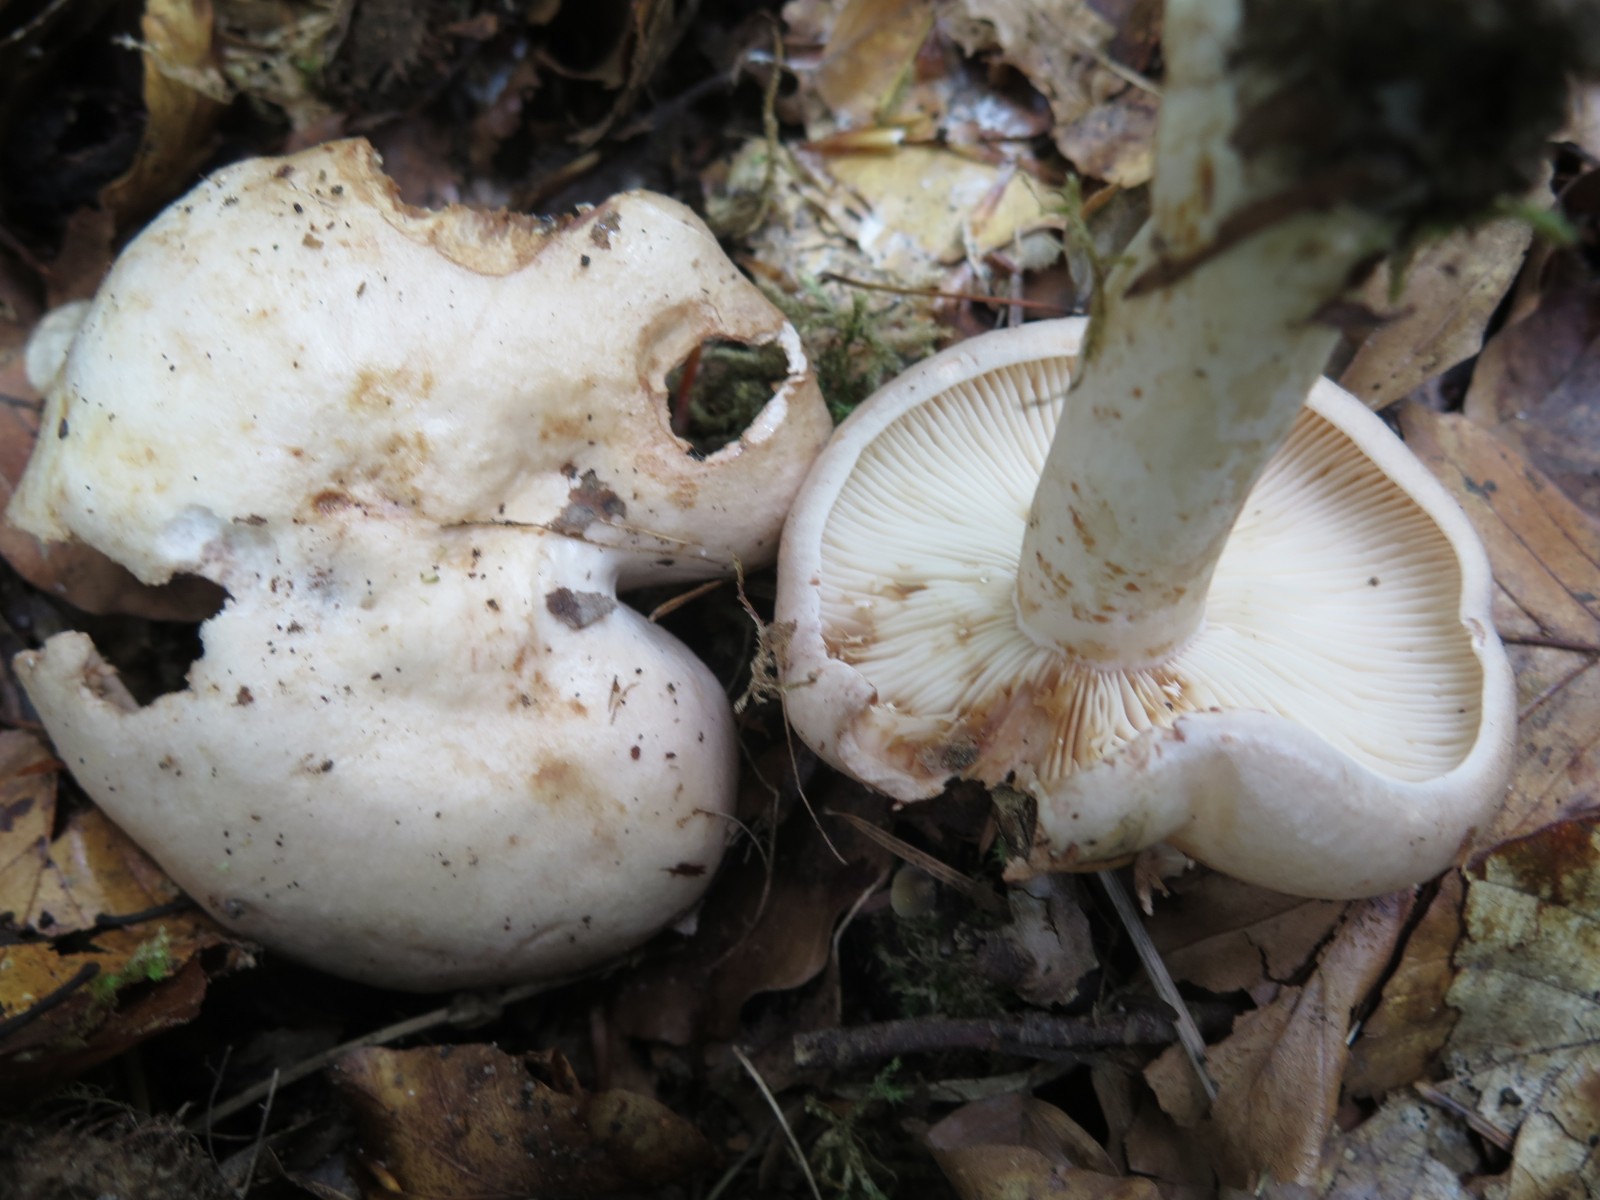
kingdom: Fungi
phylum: Basidiomycota
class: Agaricomycetes
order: Russulales
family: Russulaceae
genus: Lactarius
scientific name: Lactarius pallidus
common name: bleg mælkehat
